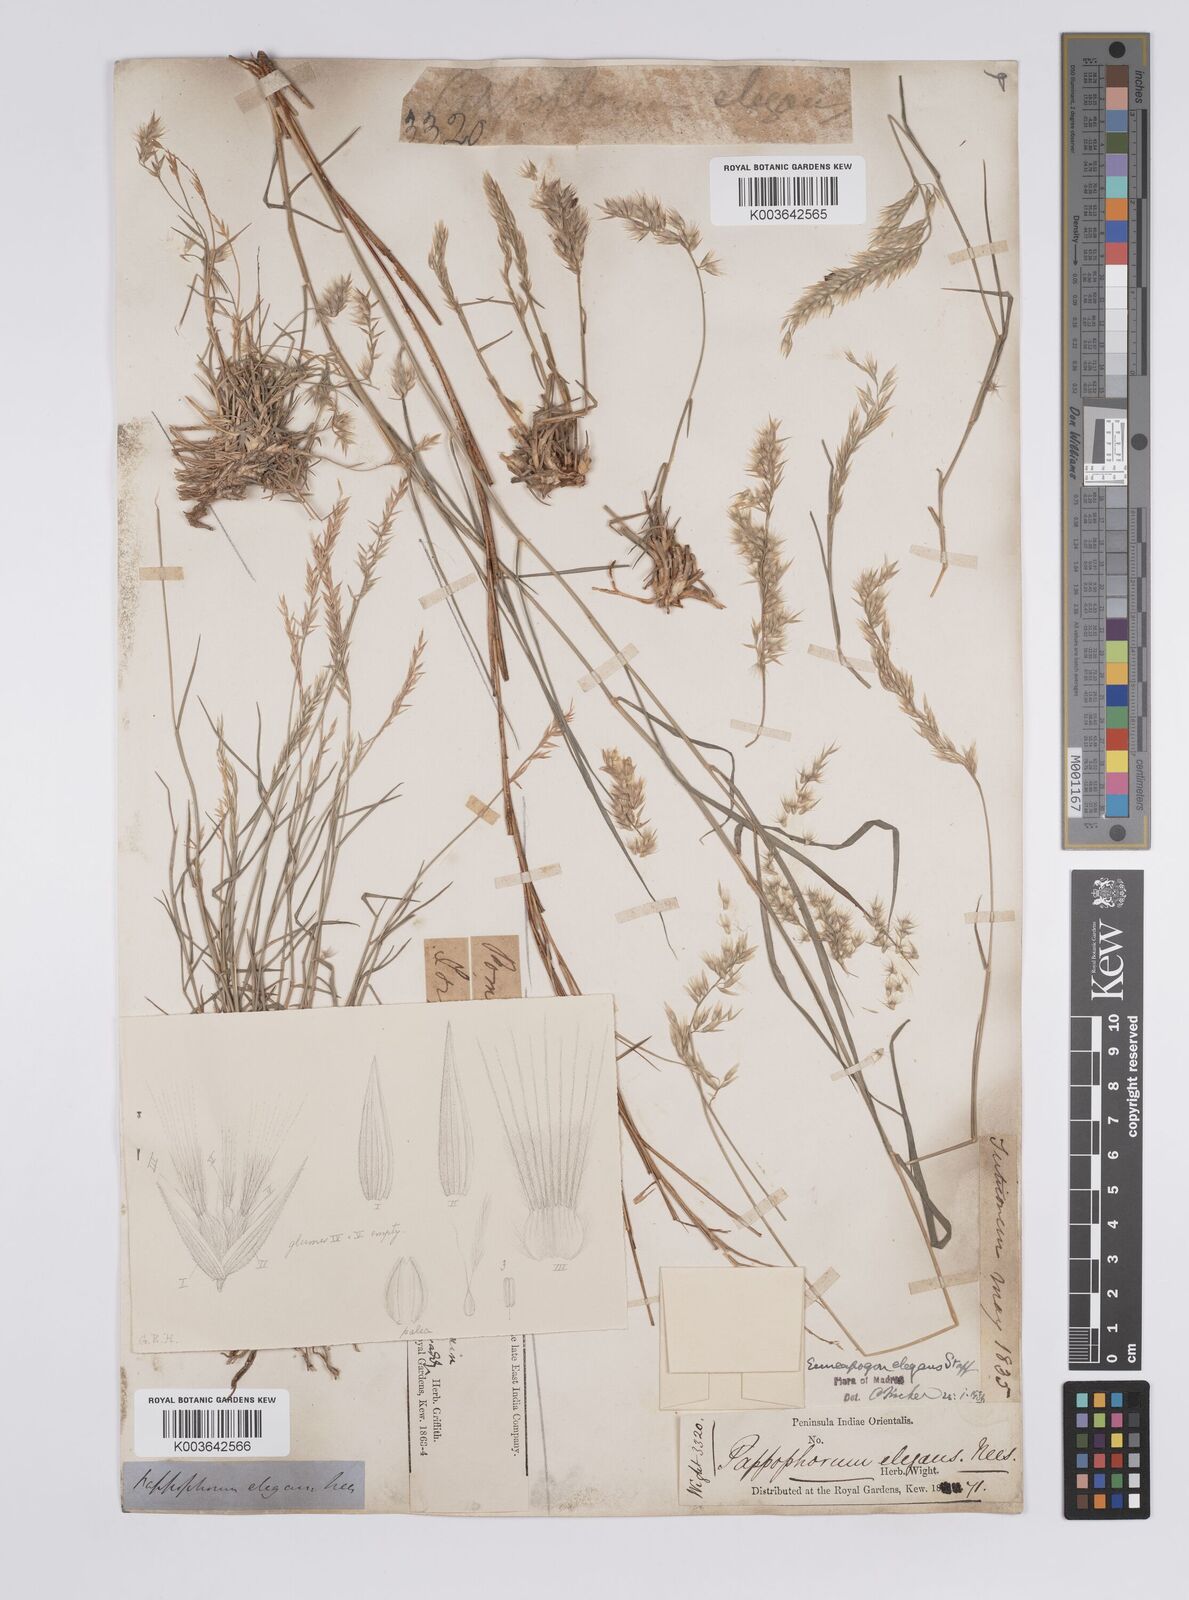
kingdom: Plantae
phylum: Tracheophyta
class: Liliopsida
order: Poales
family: Poaceae
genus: Enneapogon
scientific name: Enneapogon persicus
